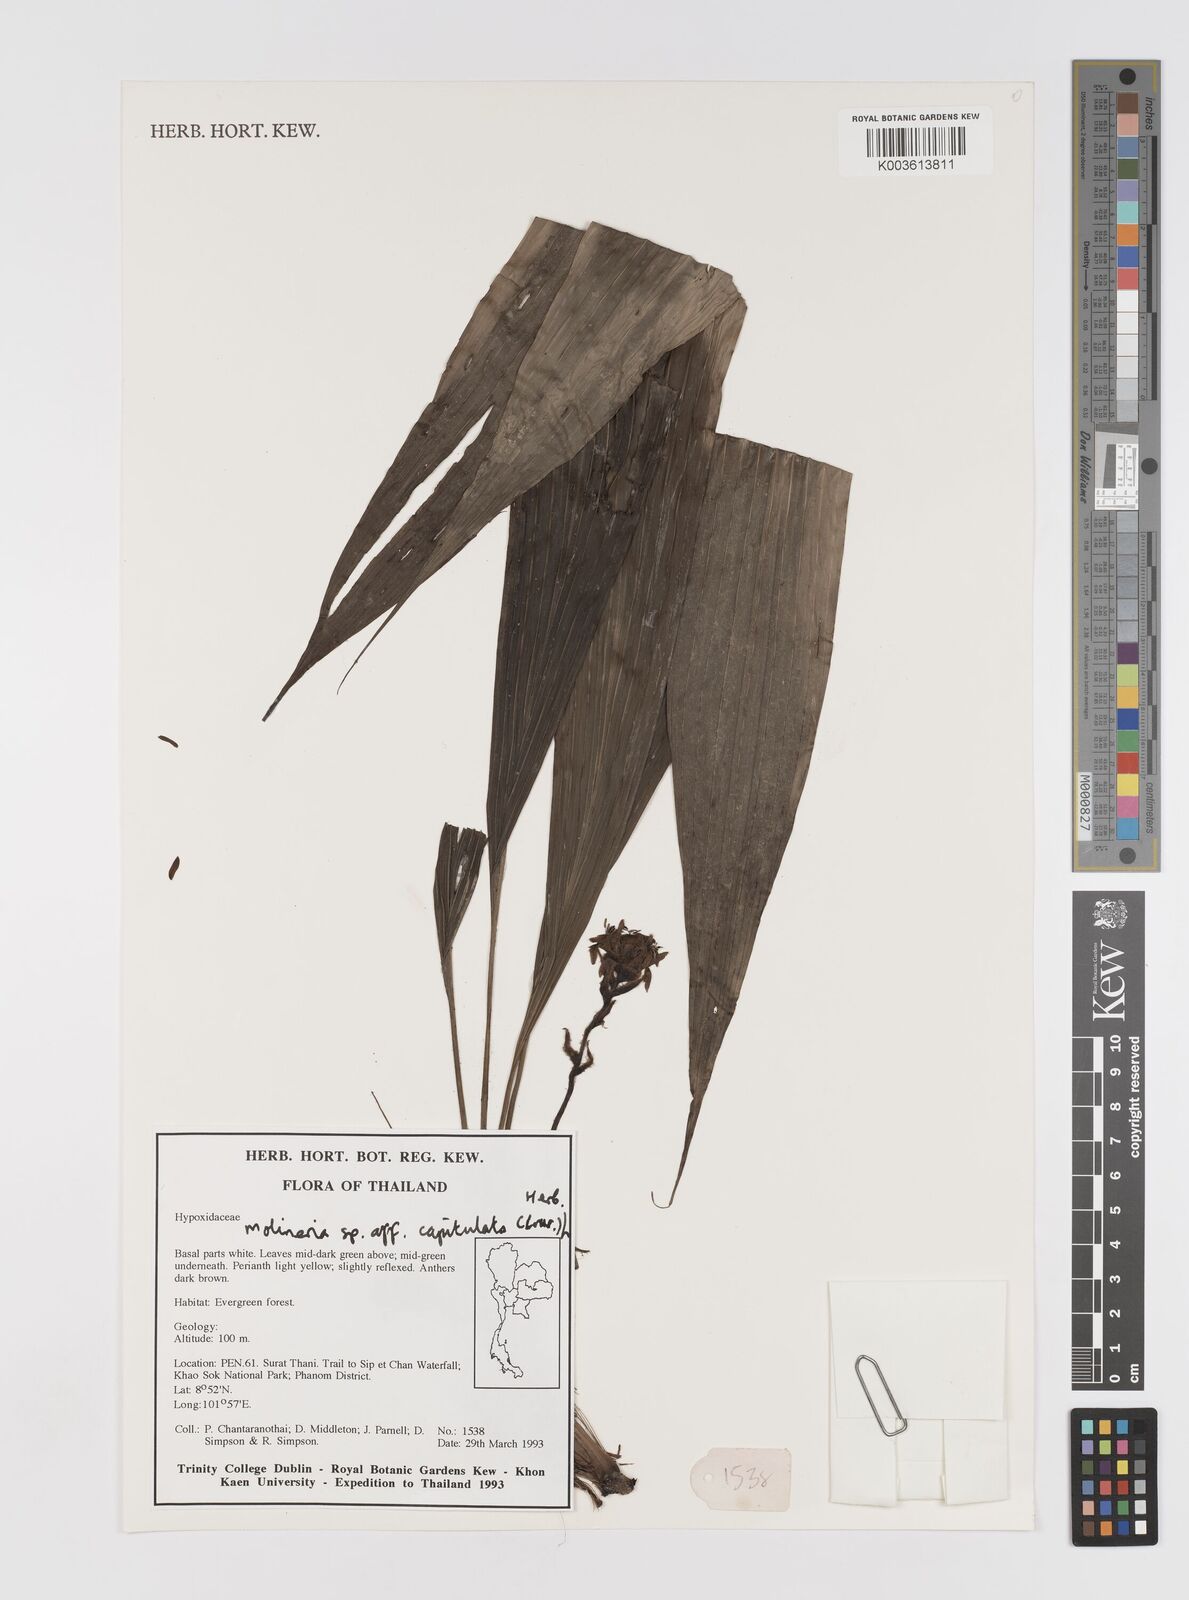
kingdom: Plantae
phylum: Tracheophyta
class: Liliopsida
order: Asparagales
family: Hypoxidaceae
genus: Curculigo
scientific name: Curculigo capitulata
